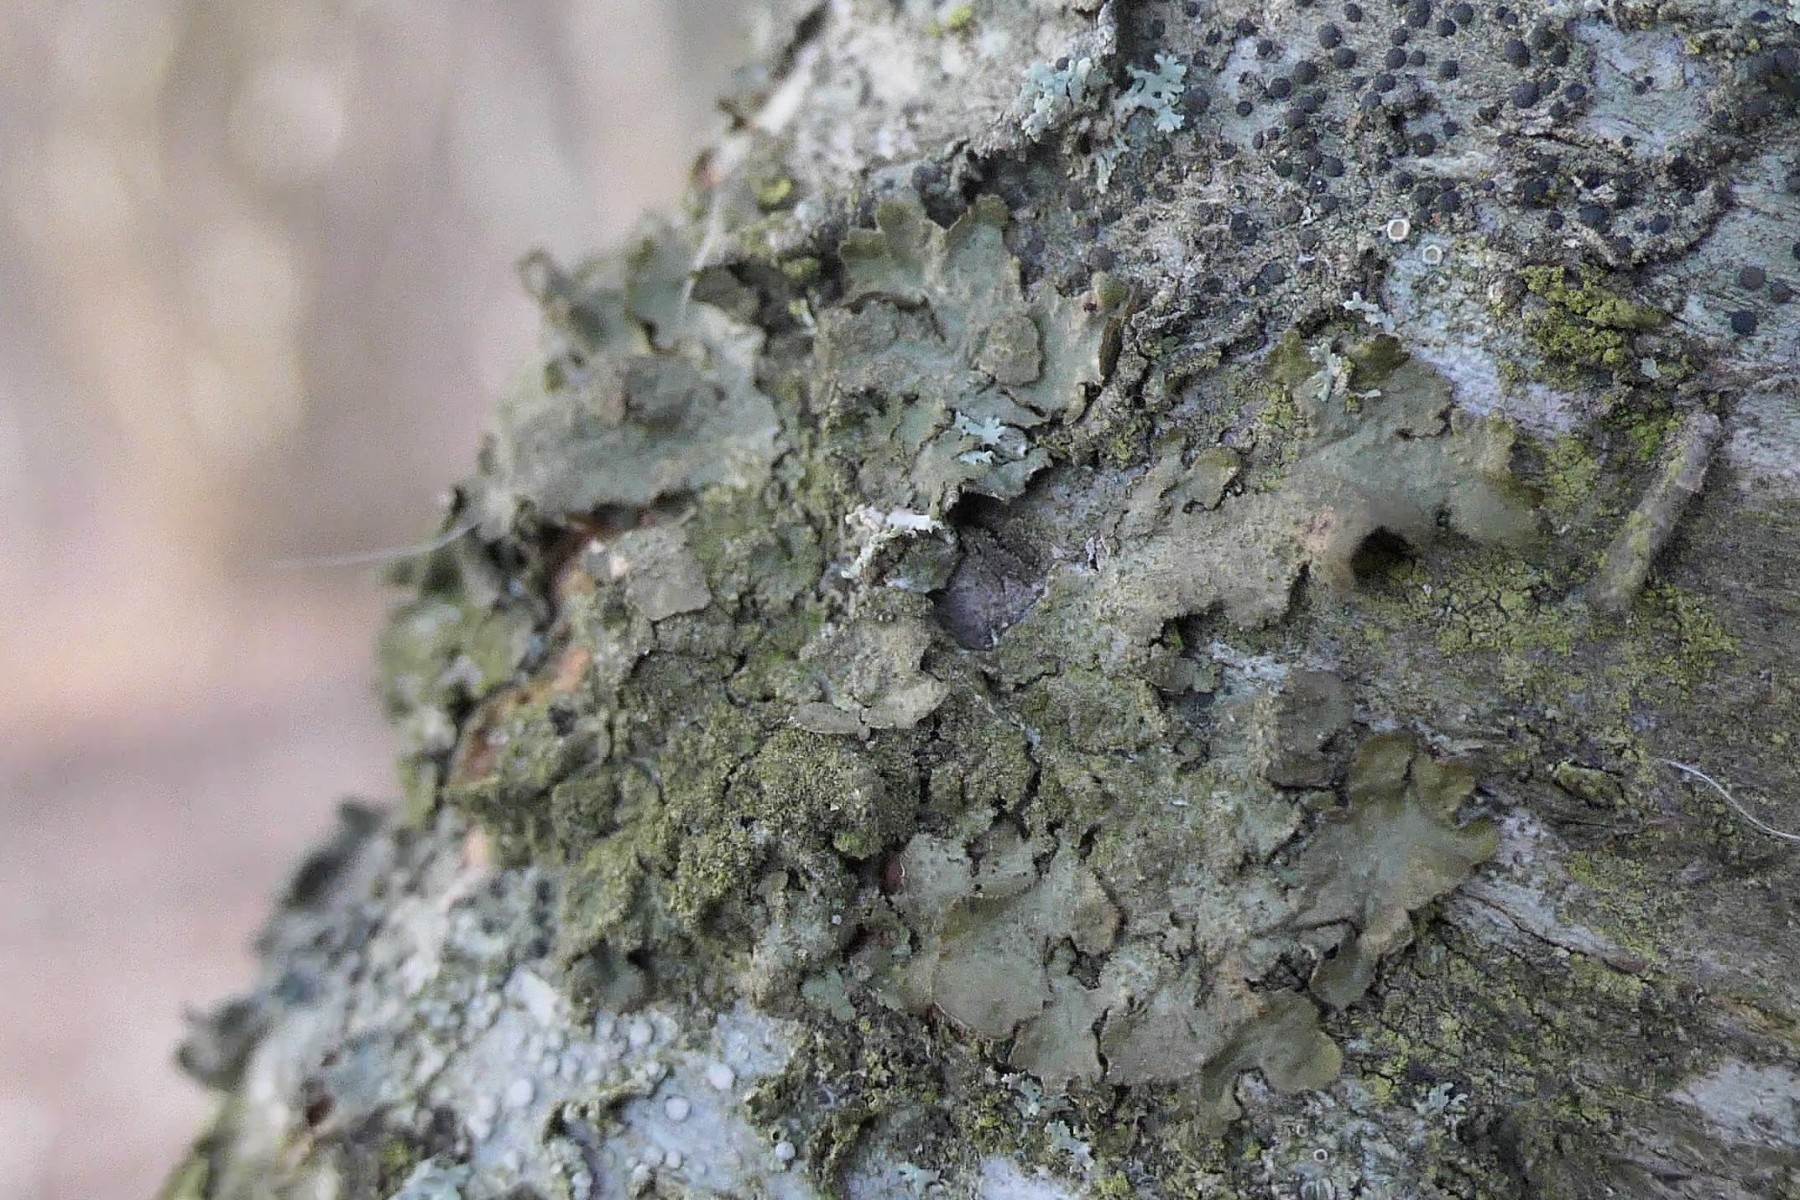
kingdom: Fungi
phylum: Ascomycota
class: Lecanoromycetes
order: Lecanorales
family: Parmeliaceae
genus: Melanelixia
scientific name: Melanelixia subaurifera
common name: guldpudret skållav
